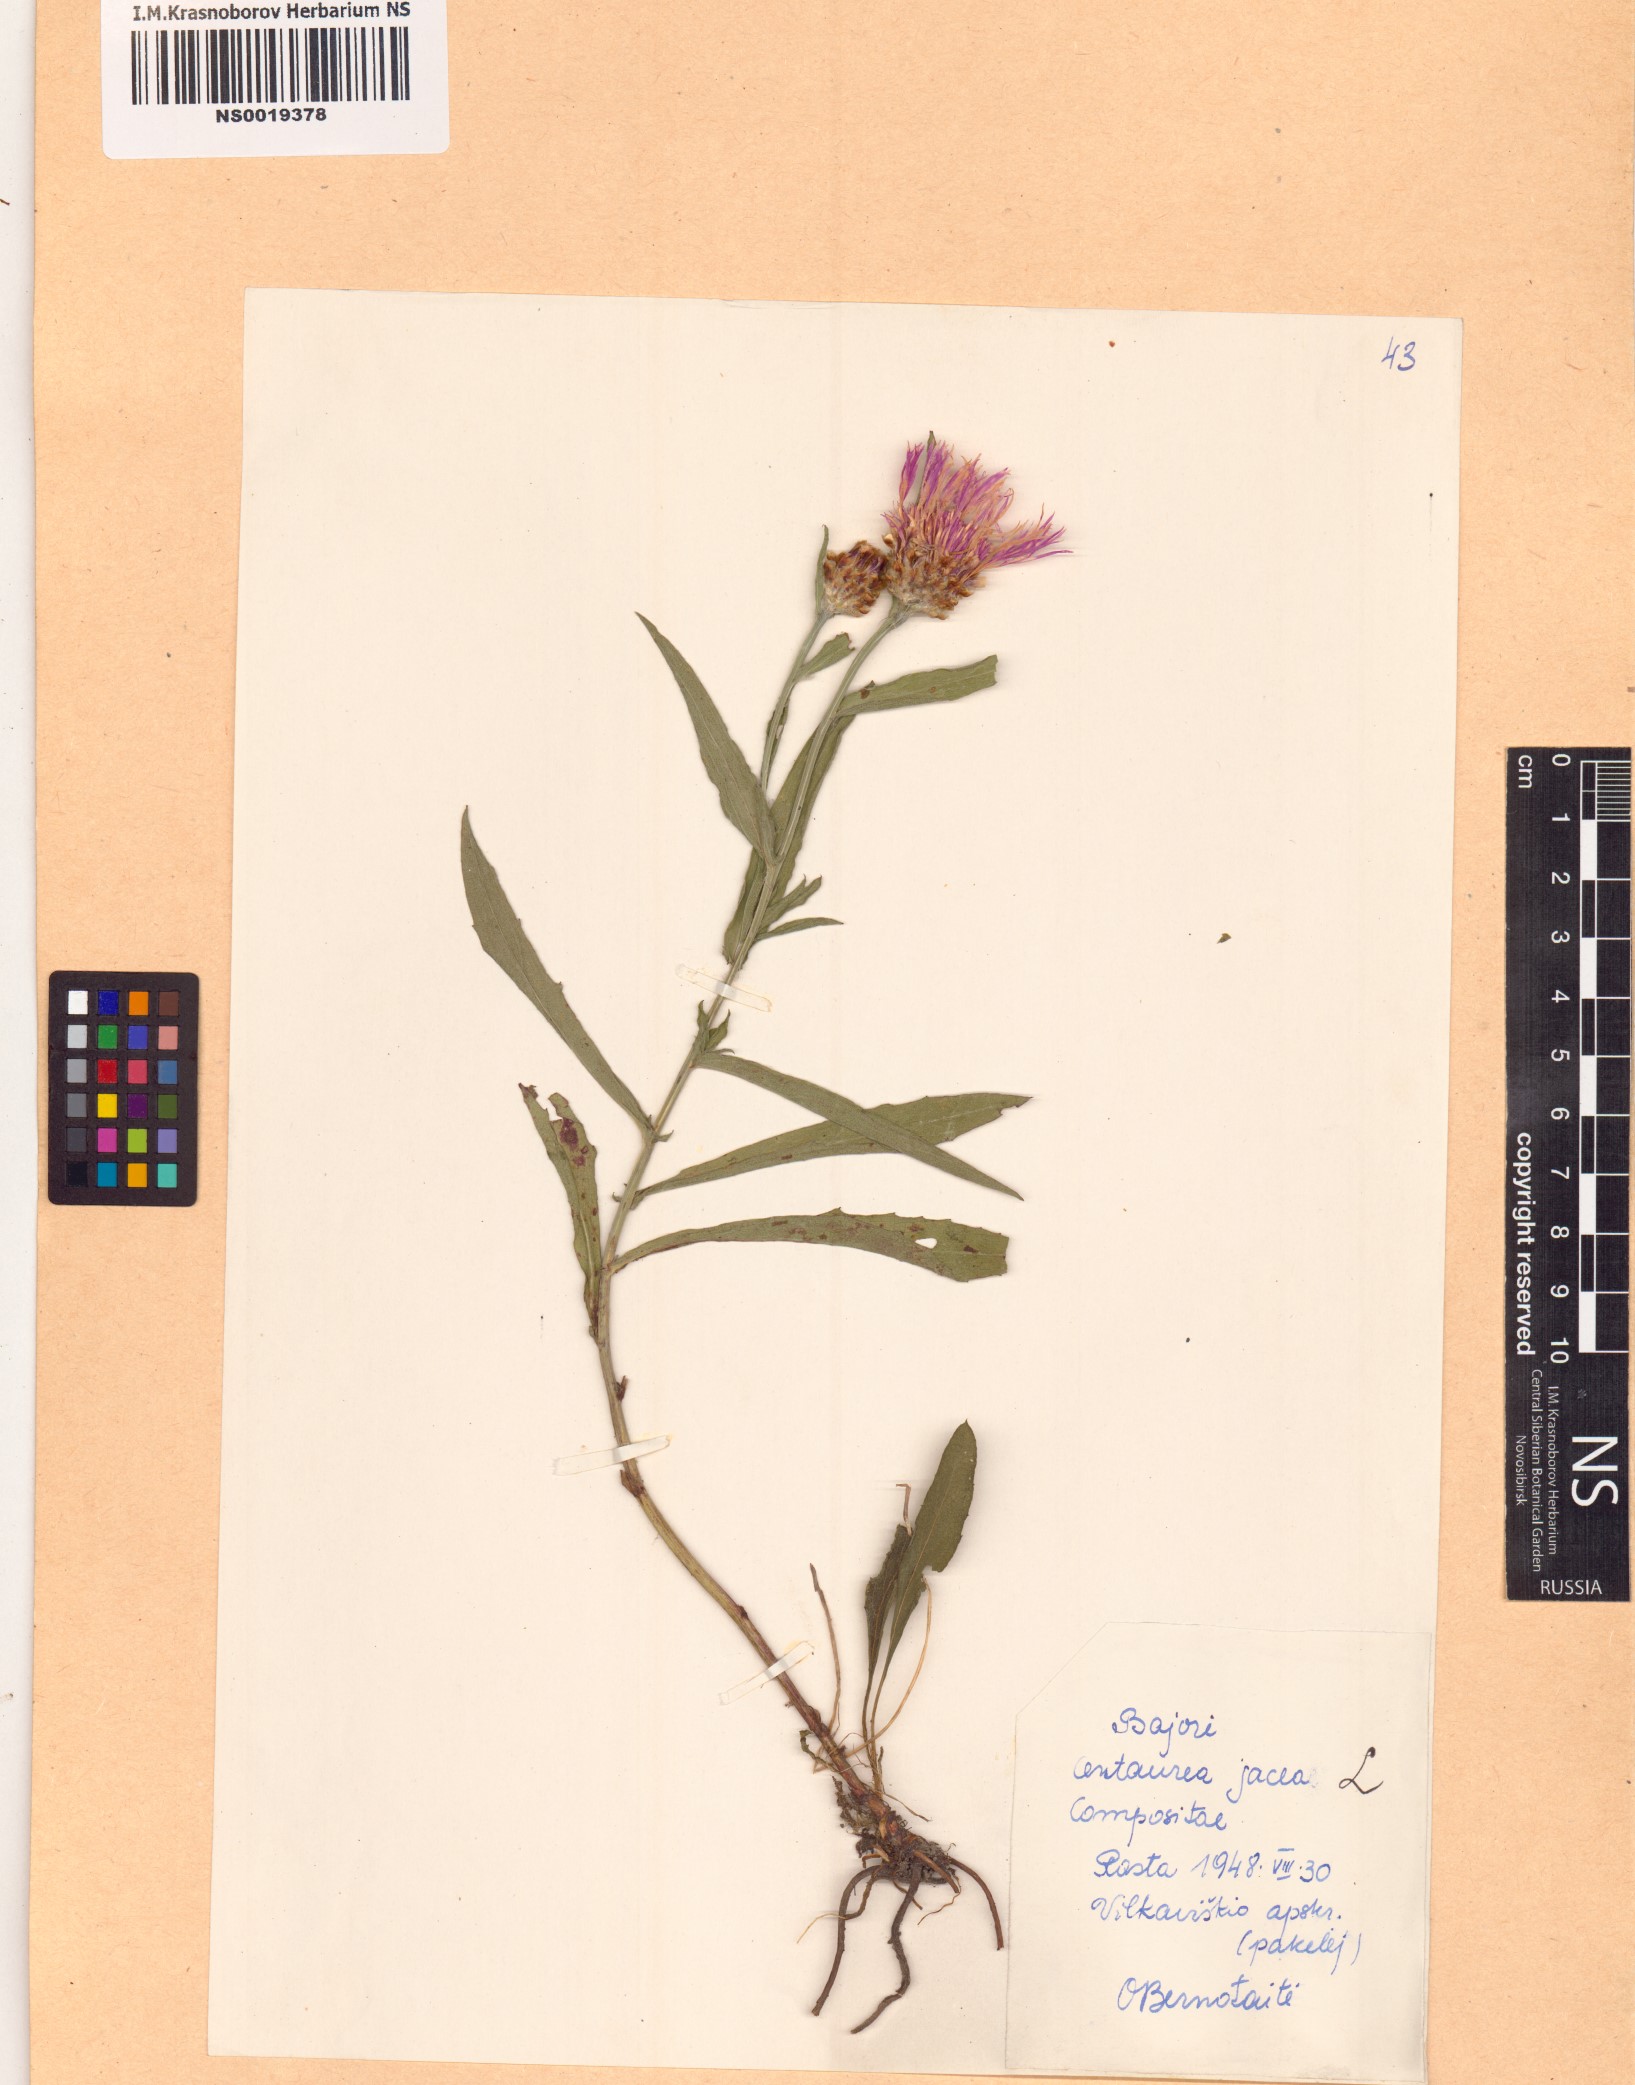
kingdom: Plantae
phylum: Tracheophyta
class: Magnoliopsida
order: Asterales
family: Asteraceae
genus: Centaurea
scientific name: Centaurea jacea
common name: Brown knapweed
